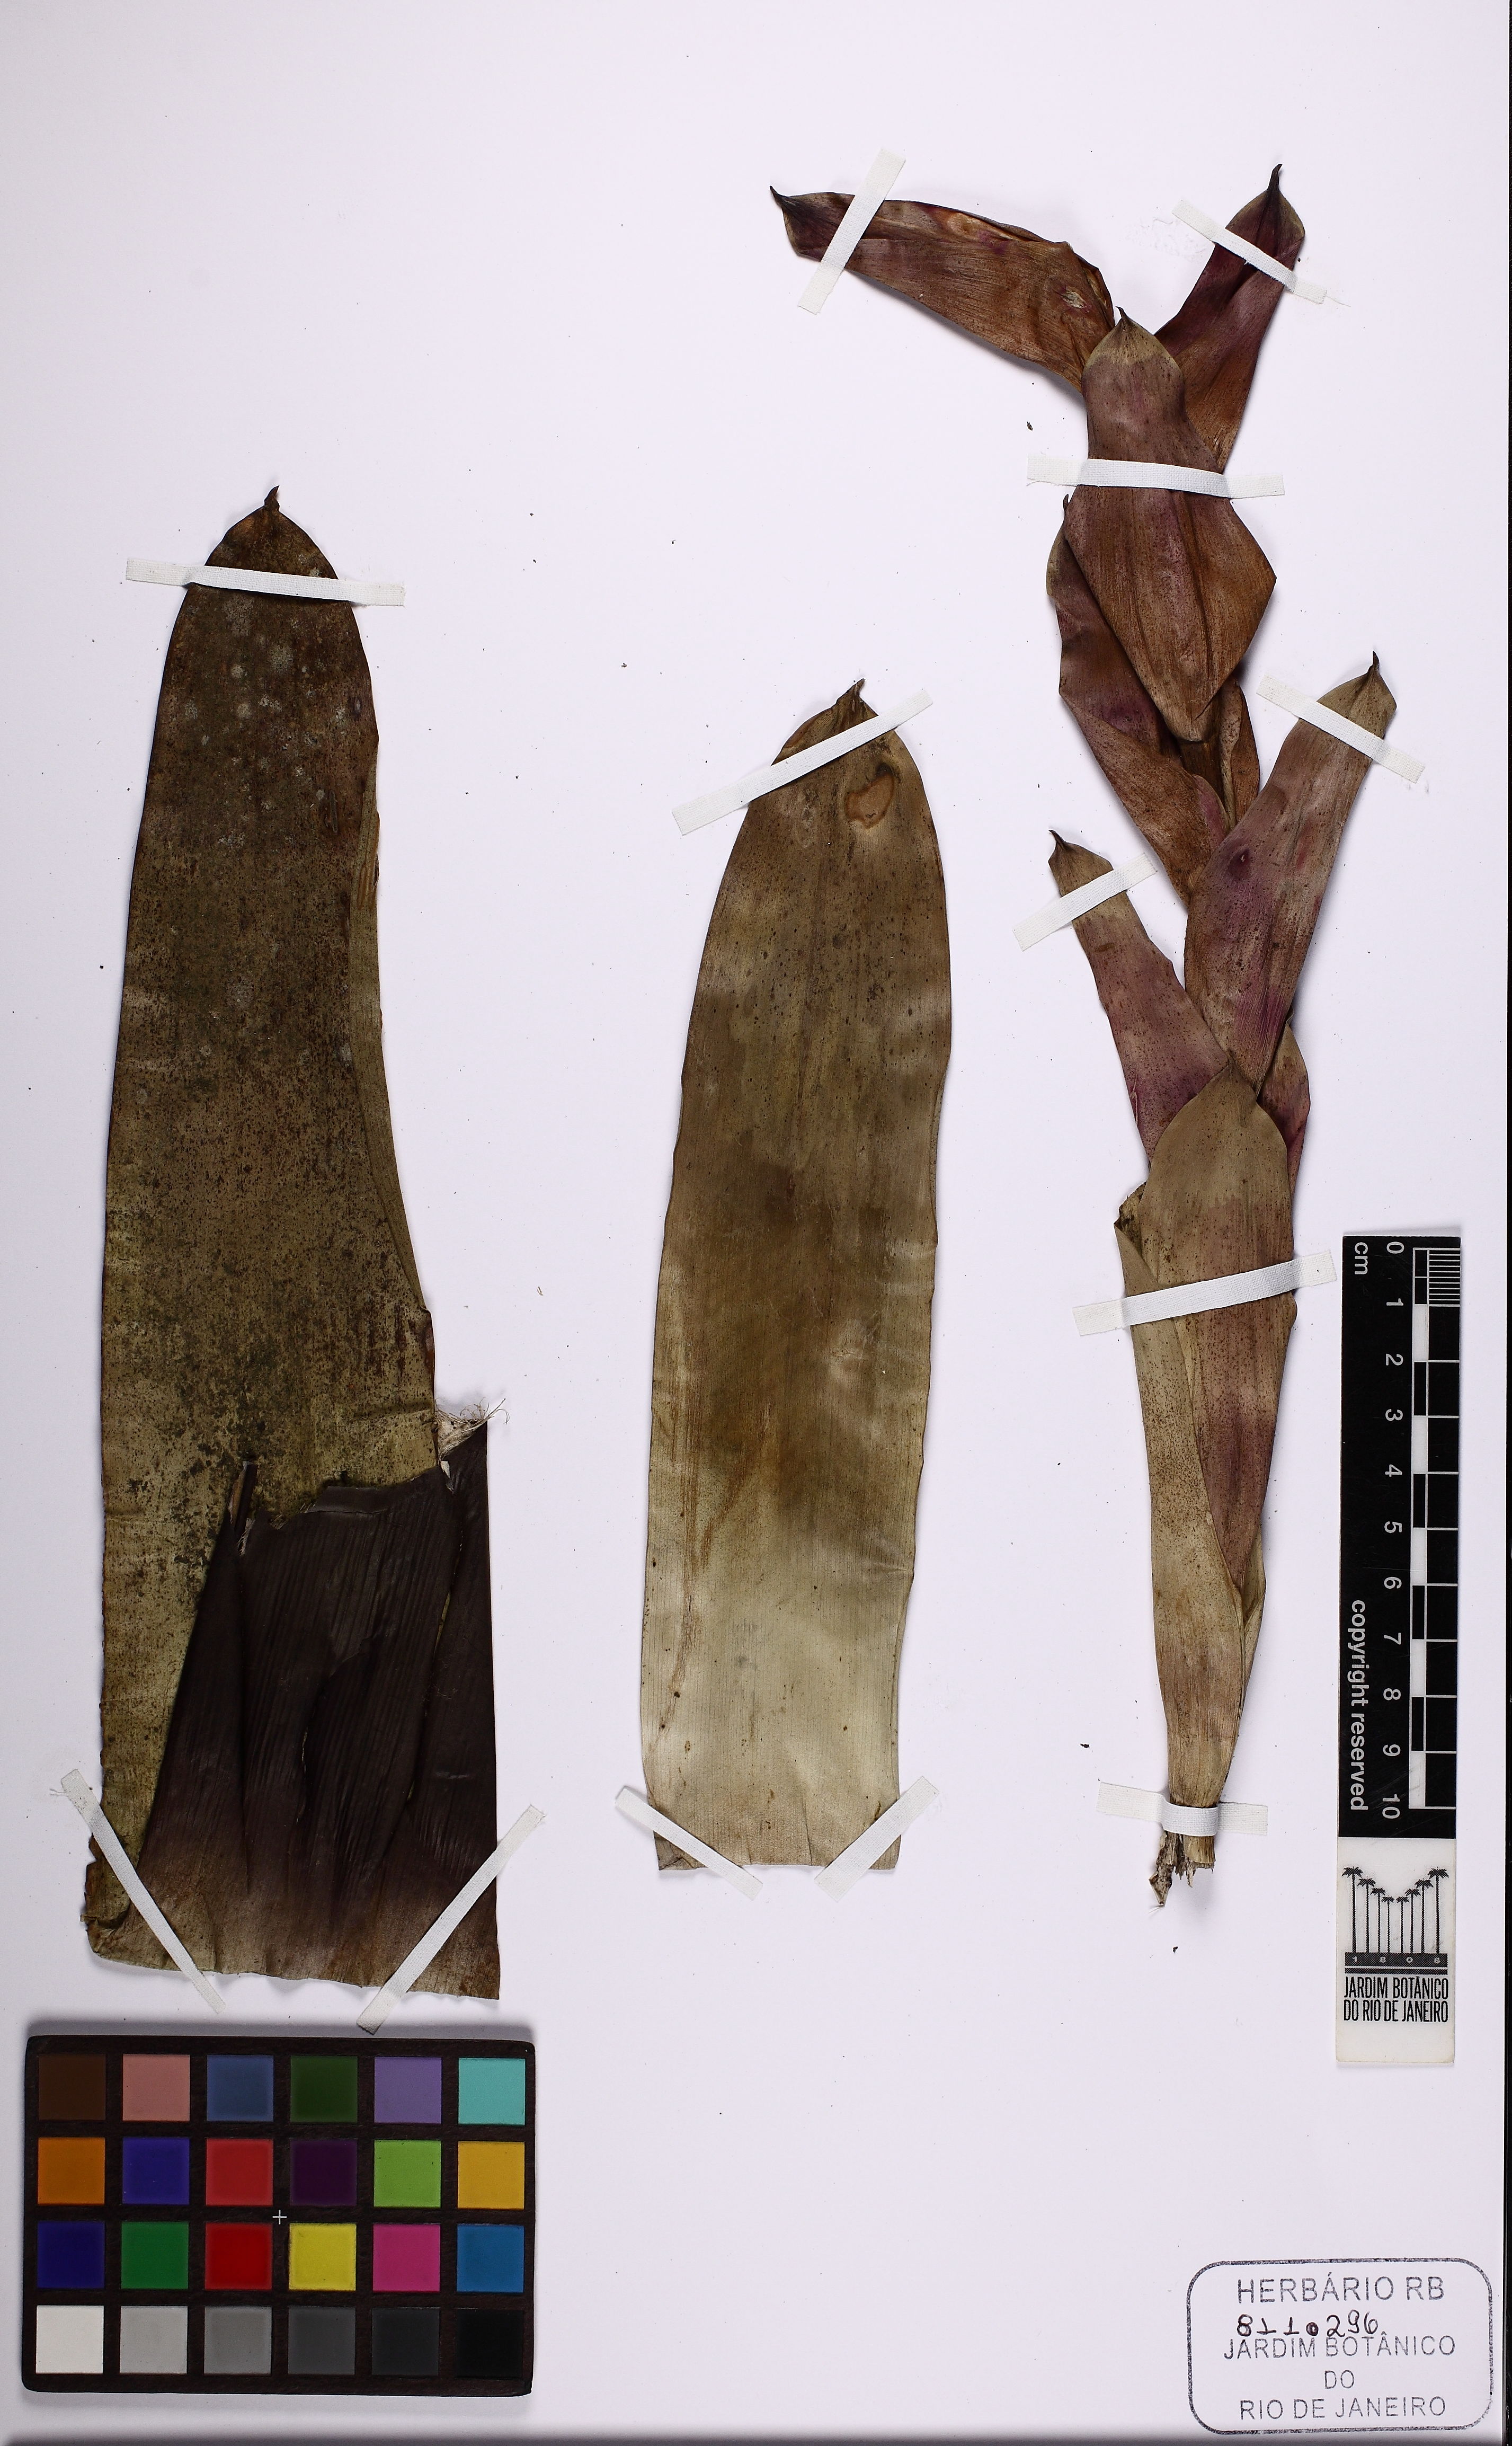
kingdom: Plantae
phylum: Tracheophyta
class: Liliopsida
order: Poales
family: Bromeliaceae
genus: Vriesea
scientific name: Vriesea
